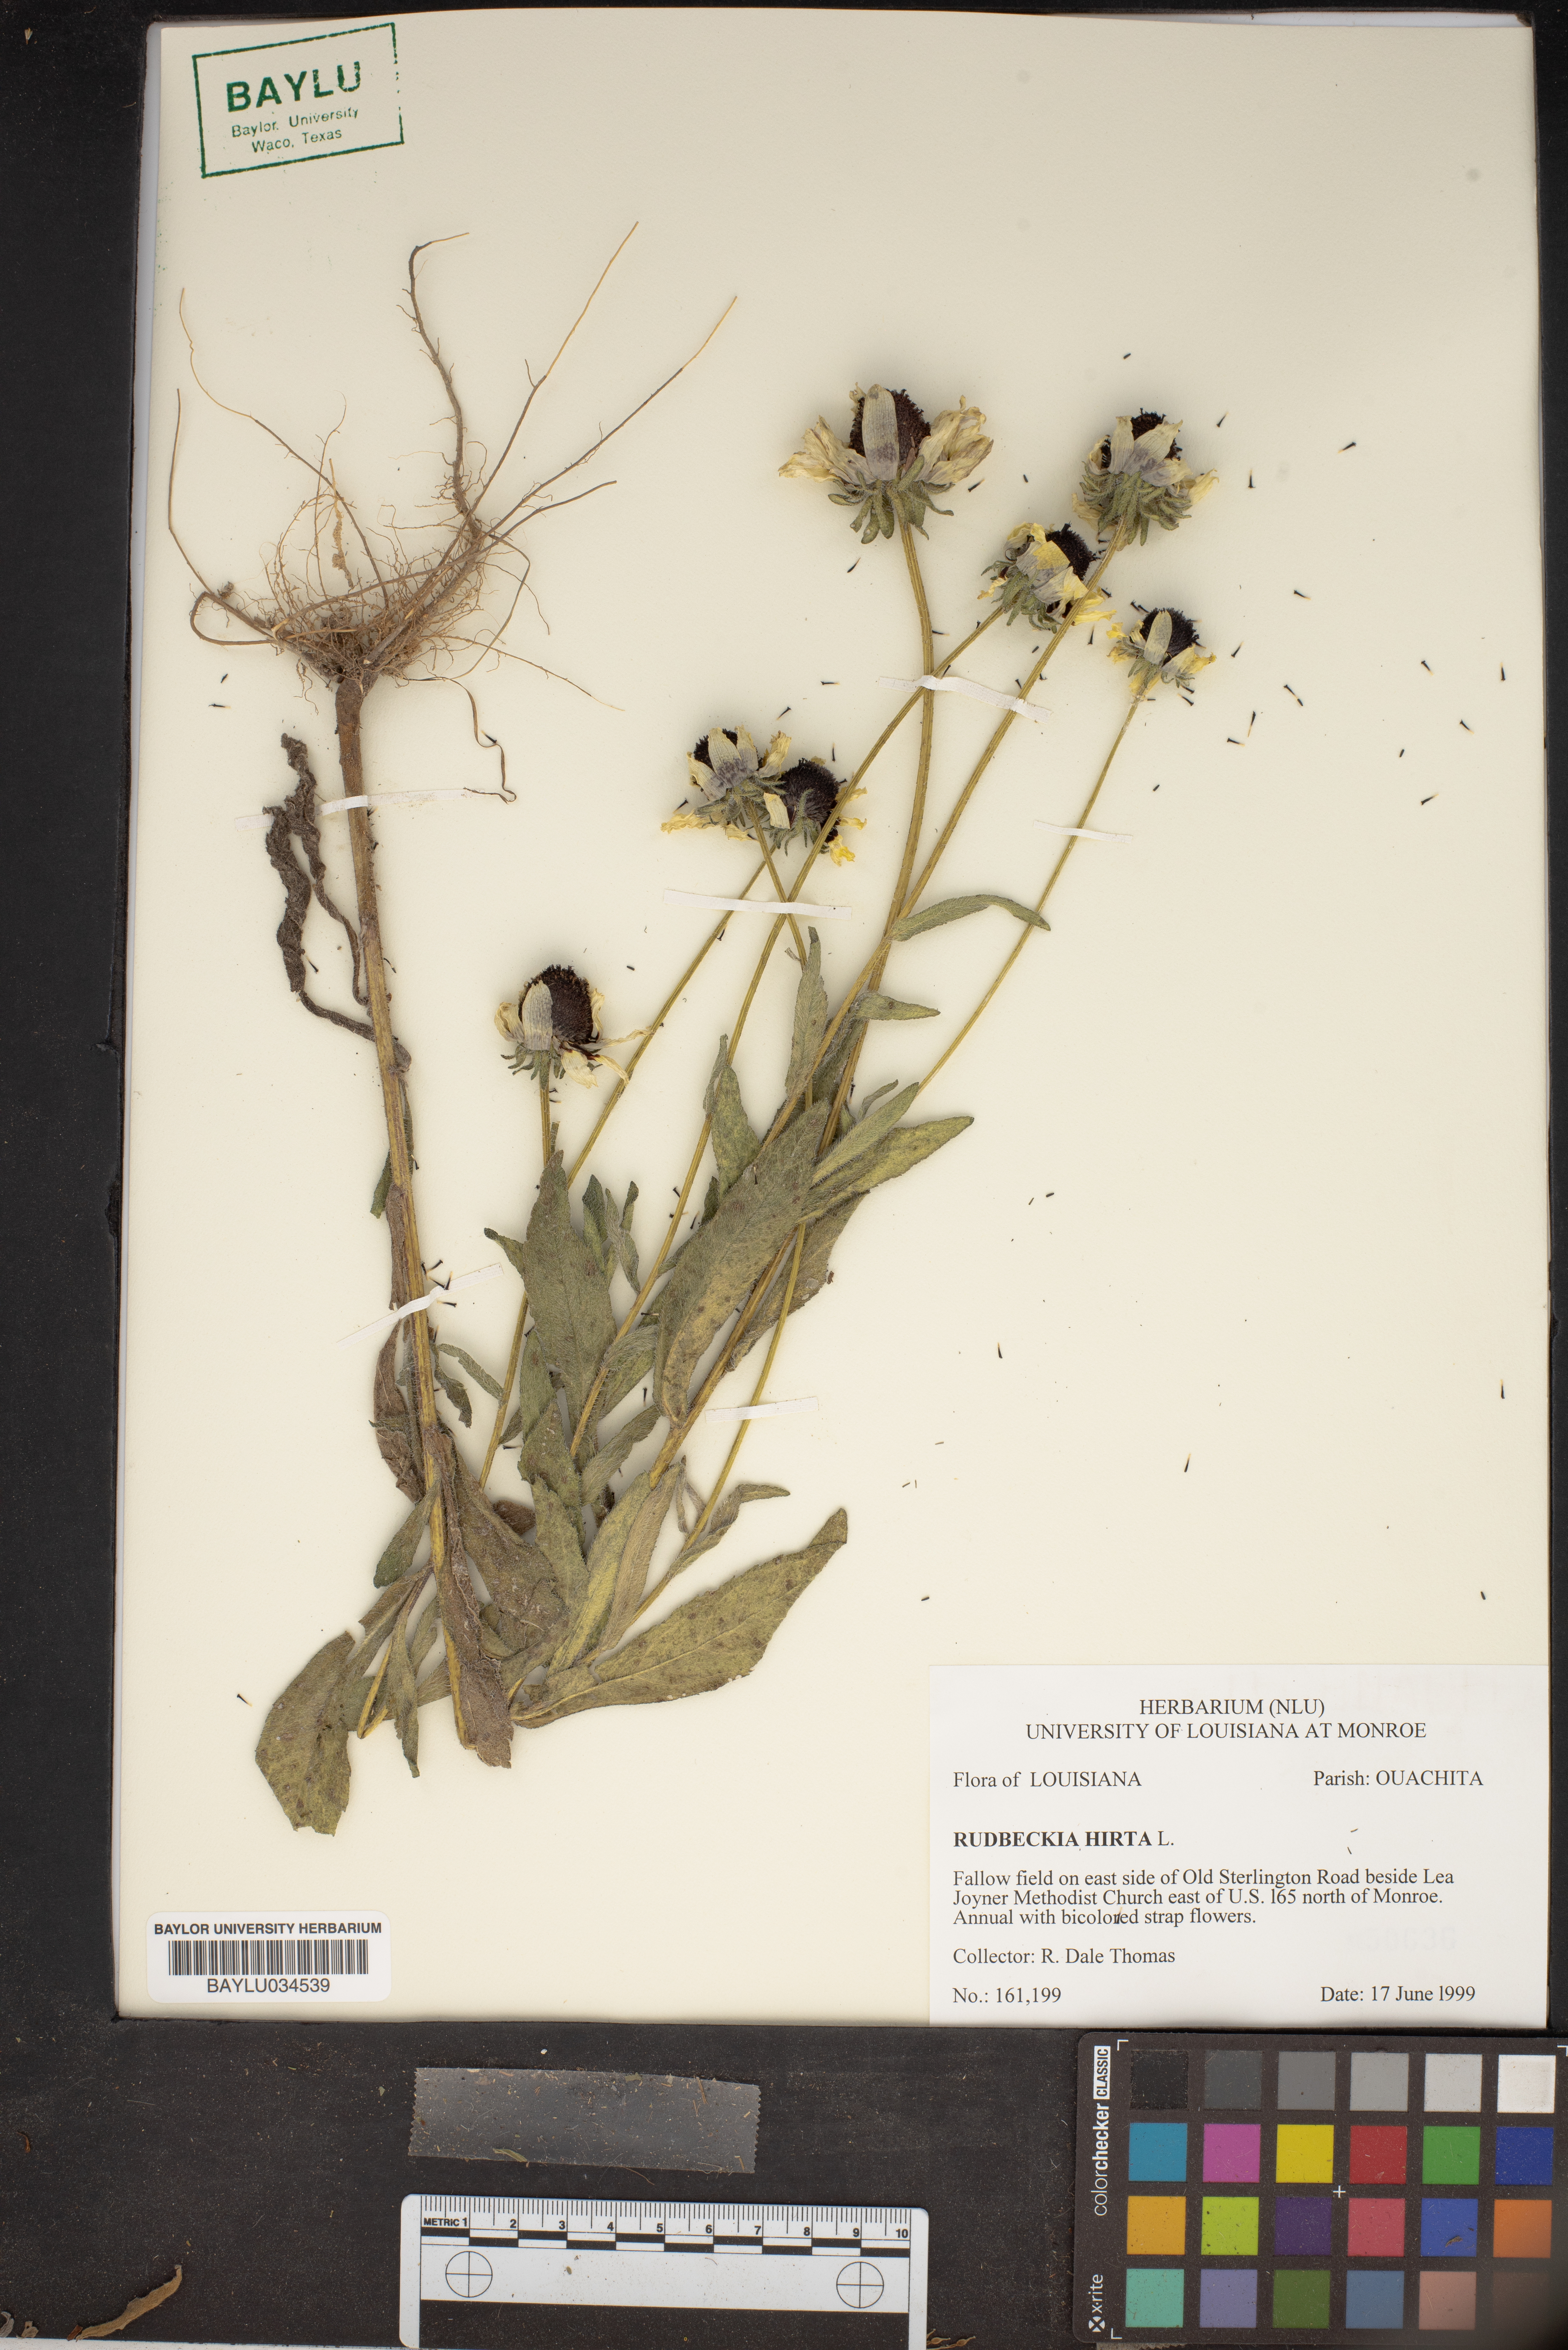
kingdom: Plantae
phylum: Tracheophyta
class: Magnoliopsida
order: Asterales
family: Asteraceae
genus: Rudbeckia
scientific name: Rudbeckia hirta
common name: Black-eyed-susan
